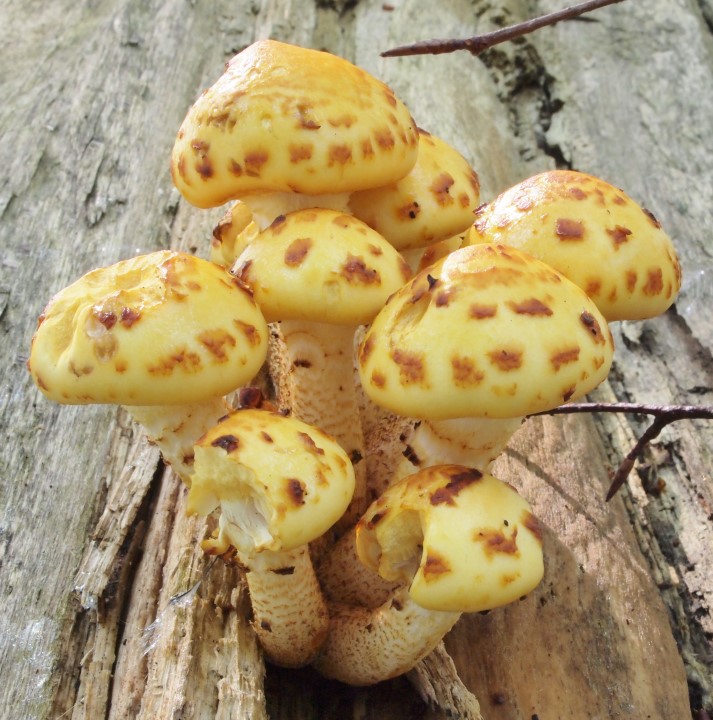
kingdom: Fungi
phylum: Basidiomycota
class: Agaricomycetes
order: Agaricales
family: Strophariaceae
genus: Pholiota
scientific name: Pholiota adiposa
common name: højtsiddende skælhat
